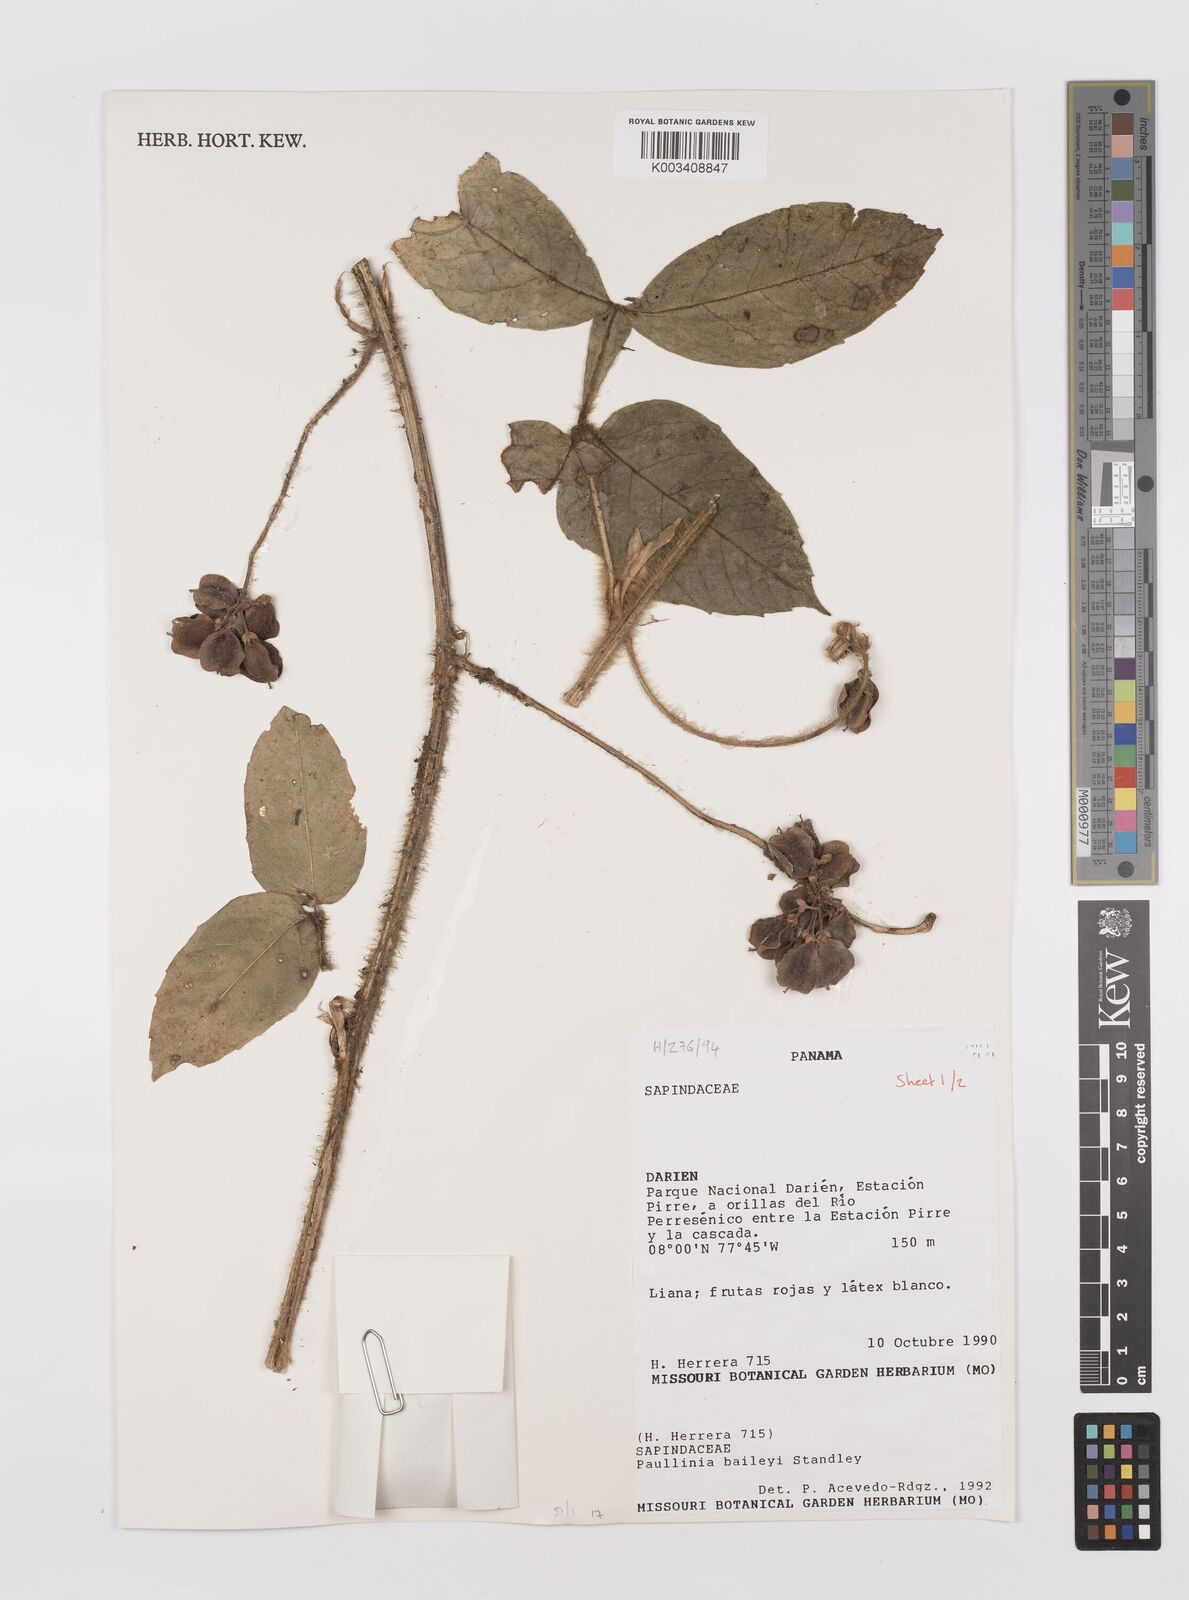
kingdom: Plantae
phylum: Tracheophyta
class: Magnoliopsida
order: Sapindales
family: Sapindaceae
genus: Paullinia
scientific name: Paullinia baileyi
